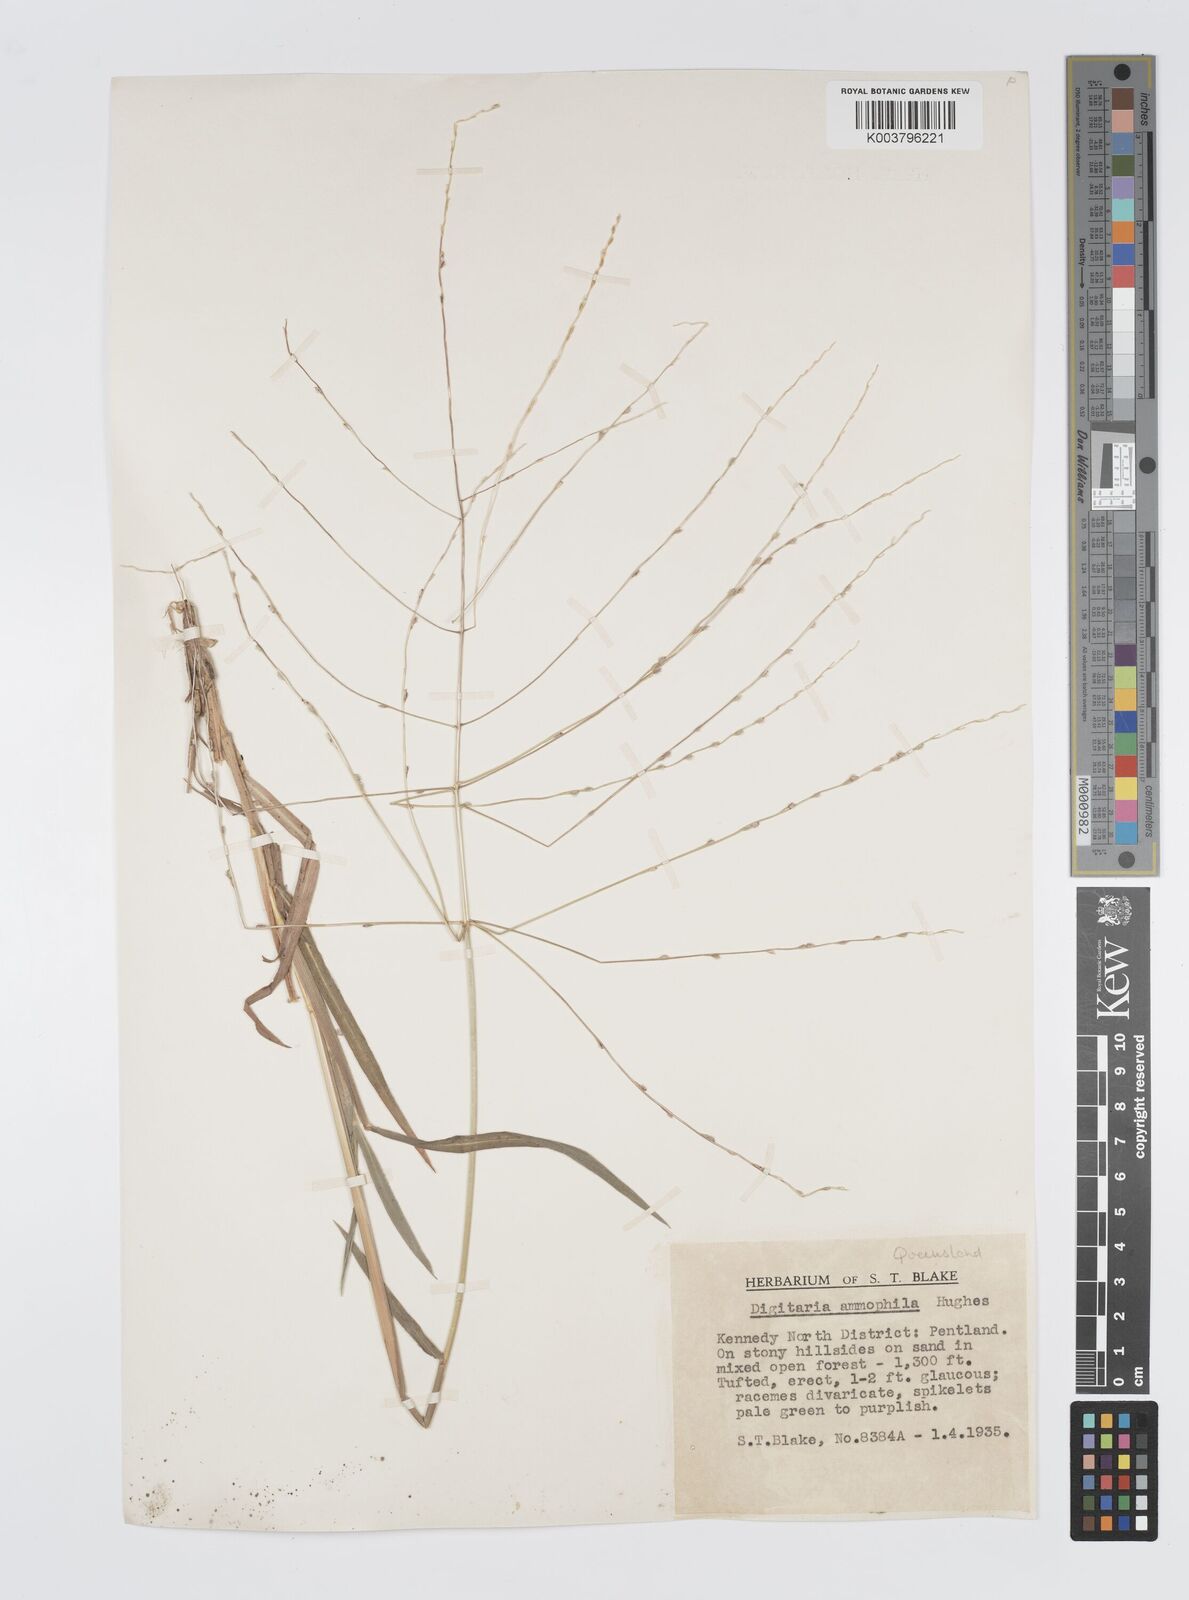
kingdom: Plantae
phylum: Tracheophyta
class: Liliopsida
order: Poales
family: Poaceae
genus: Digitaria
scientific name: Digitaria ammophila
